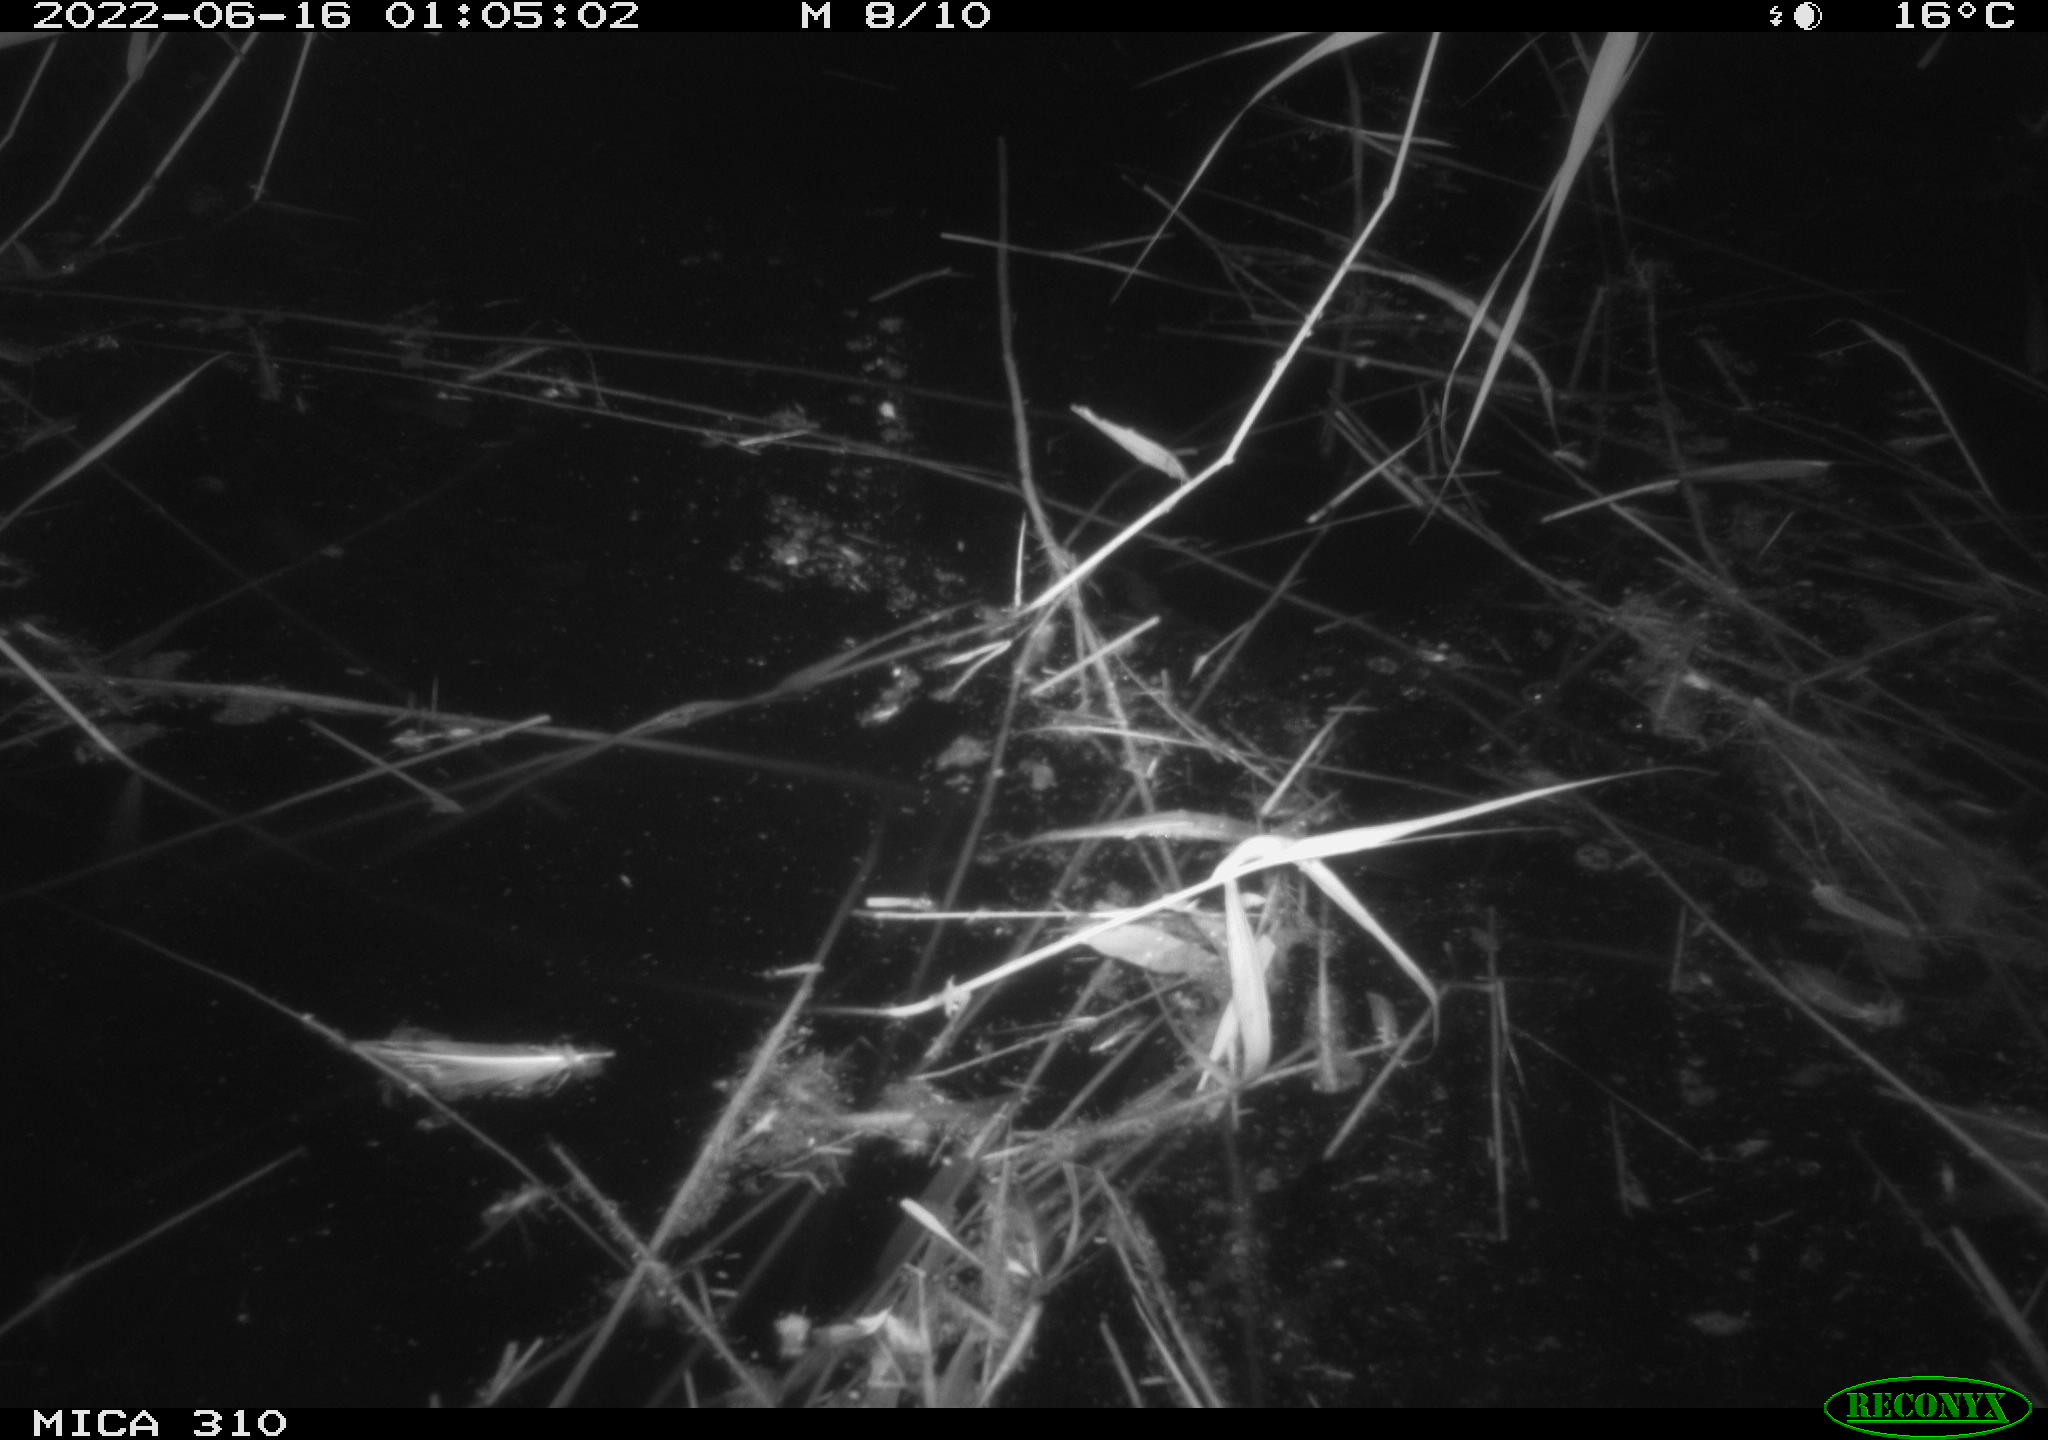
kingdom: Animalia
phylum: Chordata
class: Aves
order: Anseriformes
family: Anatidae
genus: Anas
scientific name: Anas platyrhynchos
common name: Mallard
